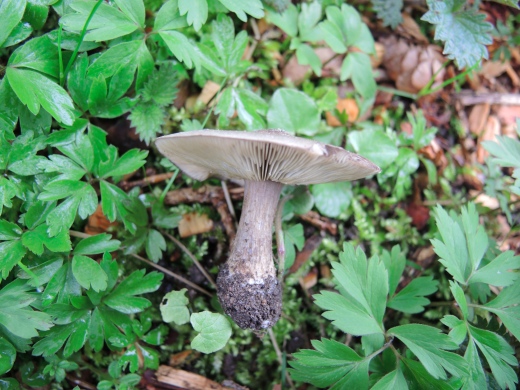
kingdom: Fungi
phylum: Basidiomycota
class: Agaricomycetes
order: Agaricales
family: Tricholomataceae
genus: Melanoleuca
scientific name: Melanoleuca humilis
